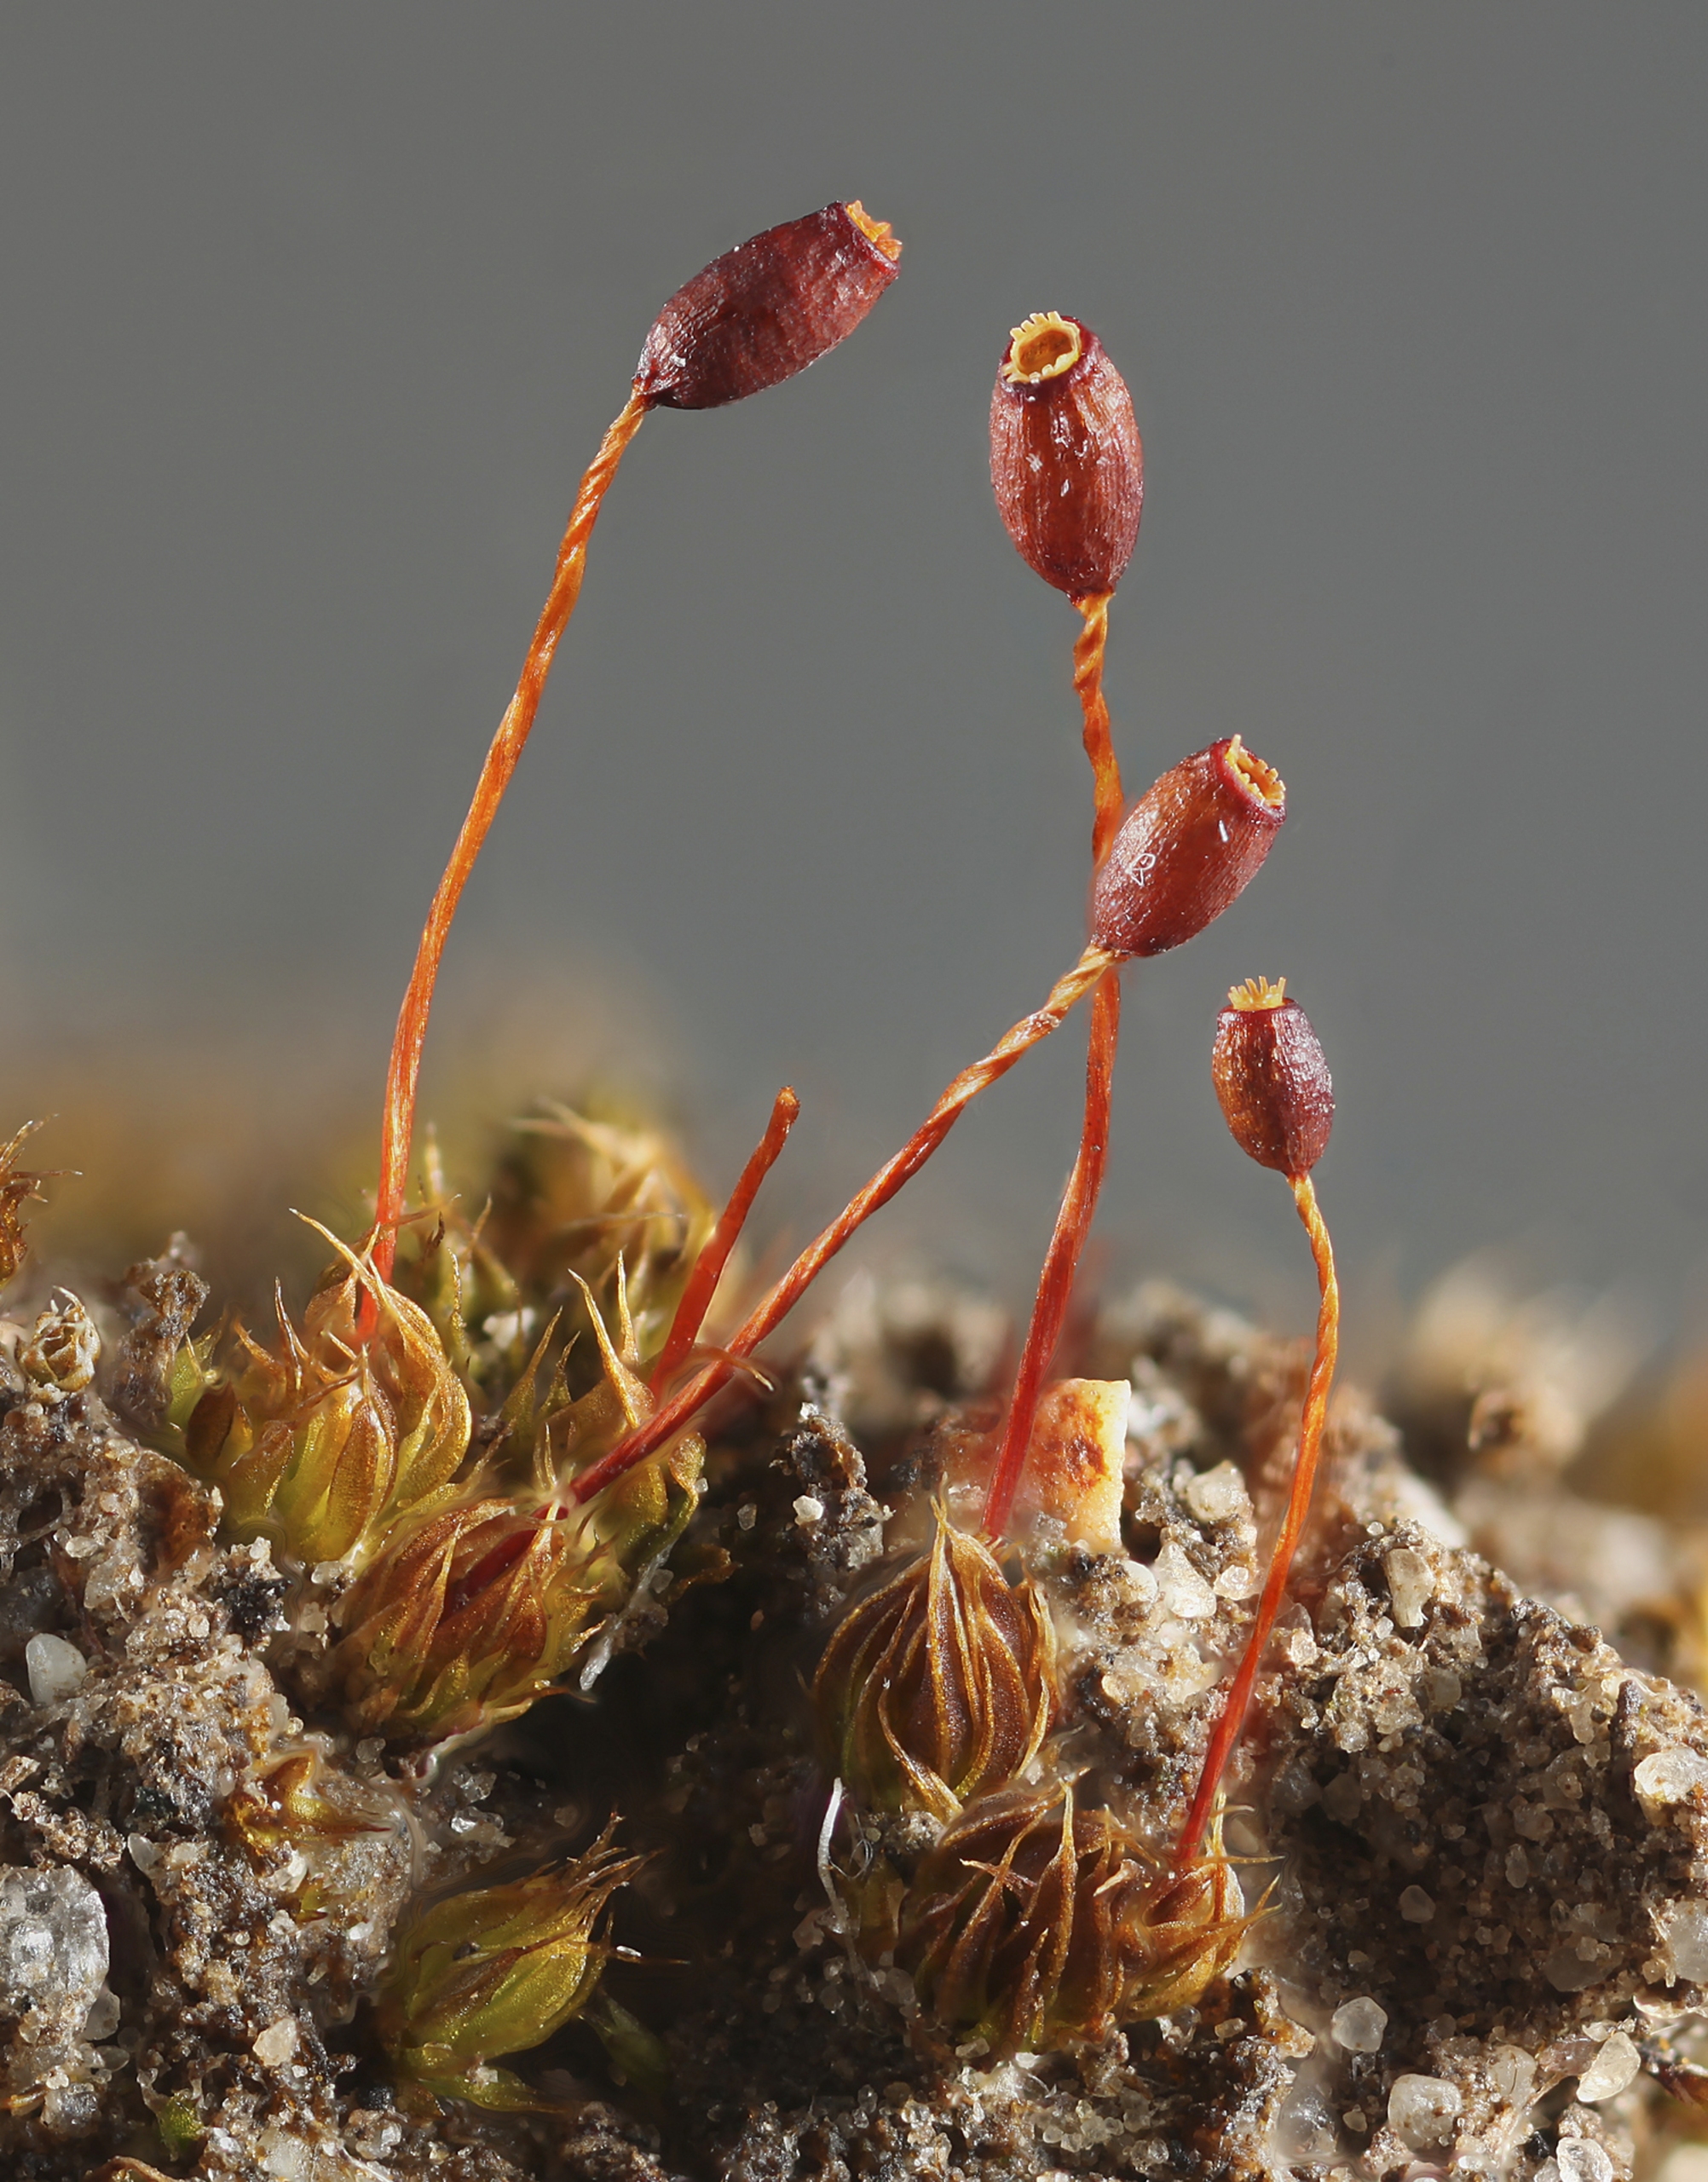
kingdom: Plantae
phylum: Bryophyta
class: Bryopsida
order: Pottiales
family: Pottiaceae
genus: Tortula
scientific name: Tortula lindbergii
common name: Lancet-bægermos
